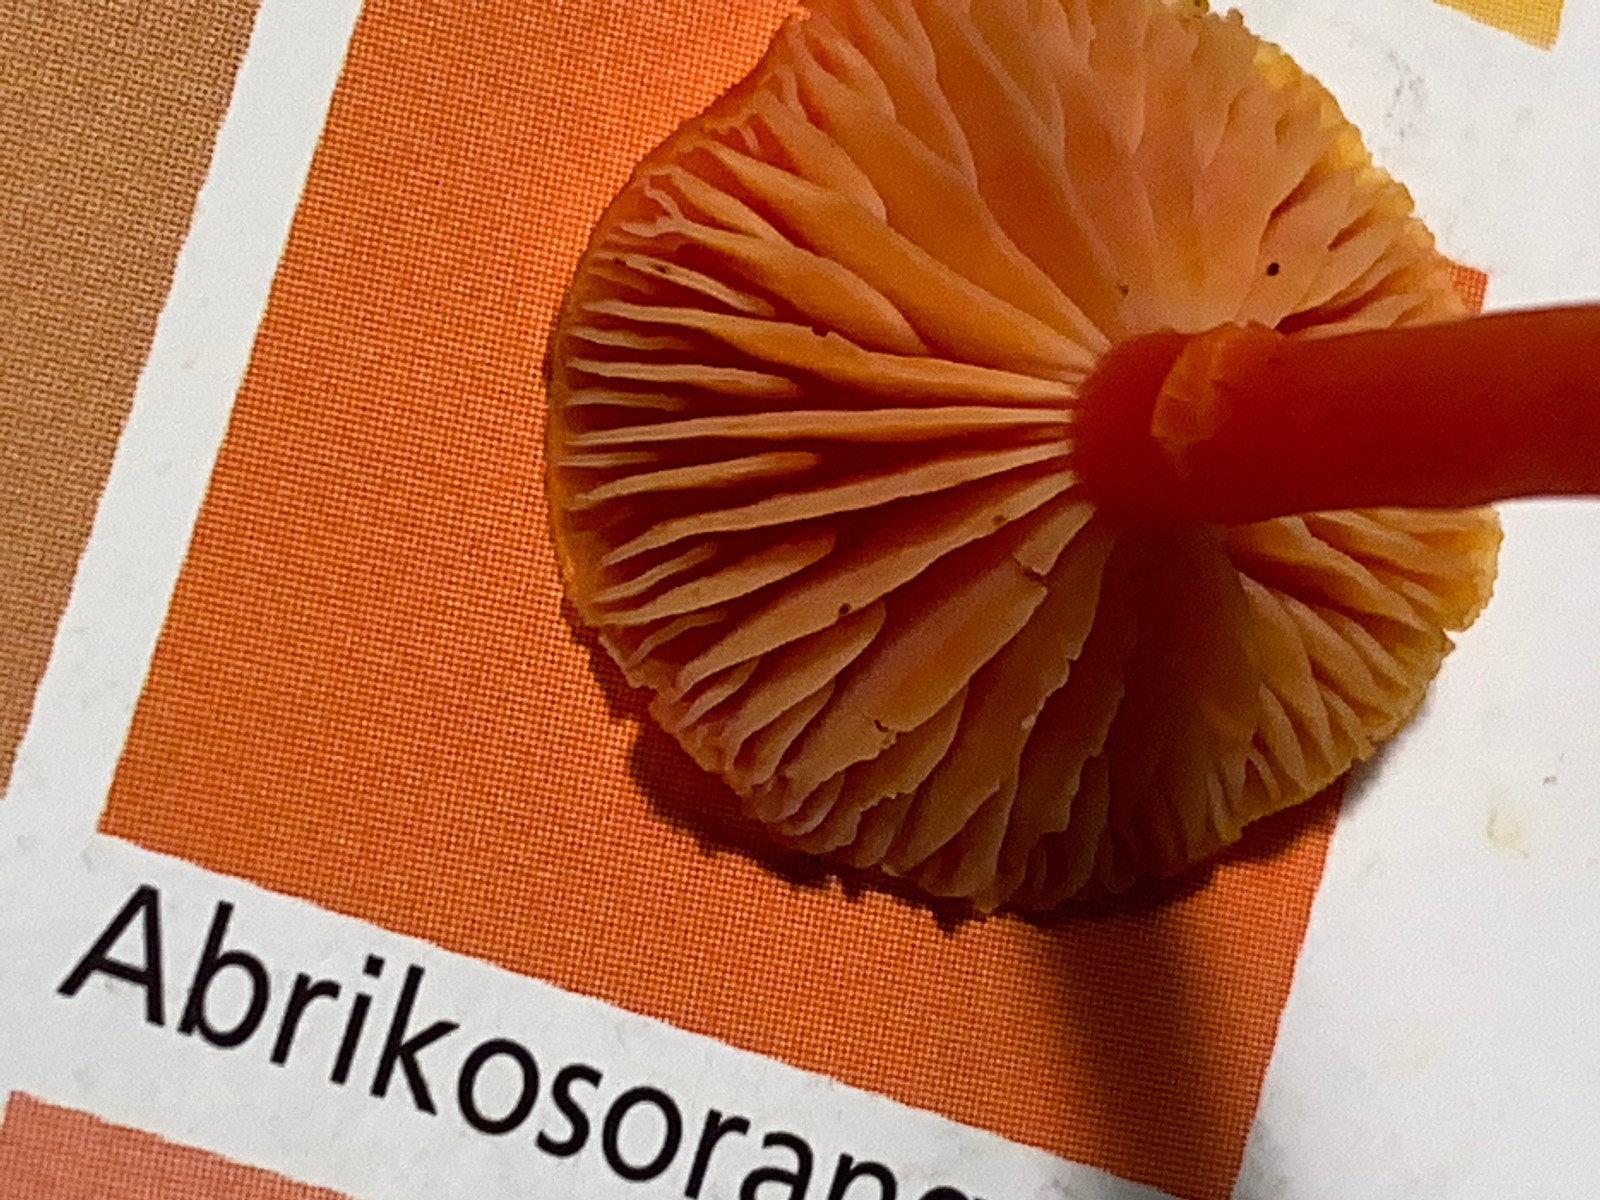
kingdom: Fungi
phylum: Basidiomycota
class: Agaricomycetes
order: Agaricales
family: Hygrophoraceae
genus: Hygrocybe
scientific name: Hygrocybe miniata
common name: mønje-vokshat
